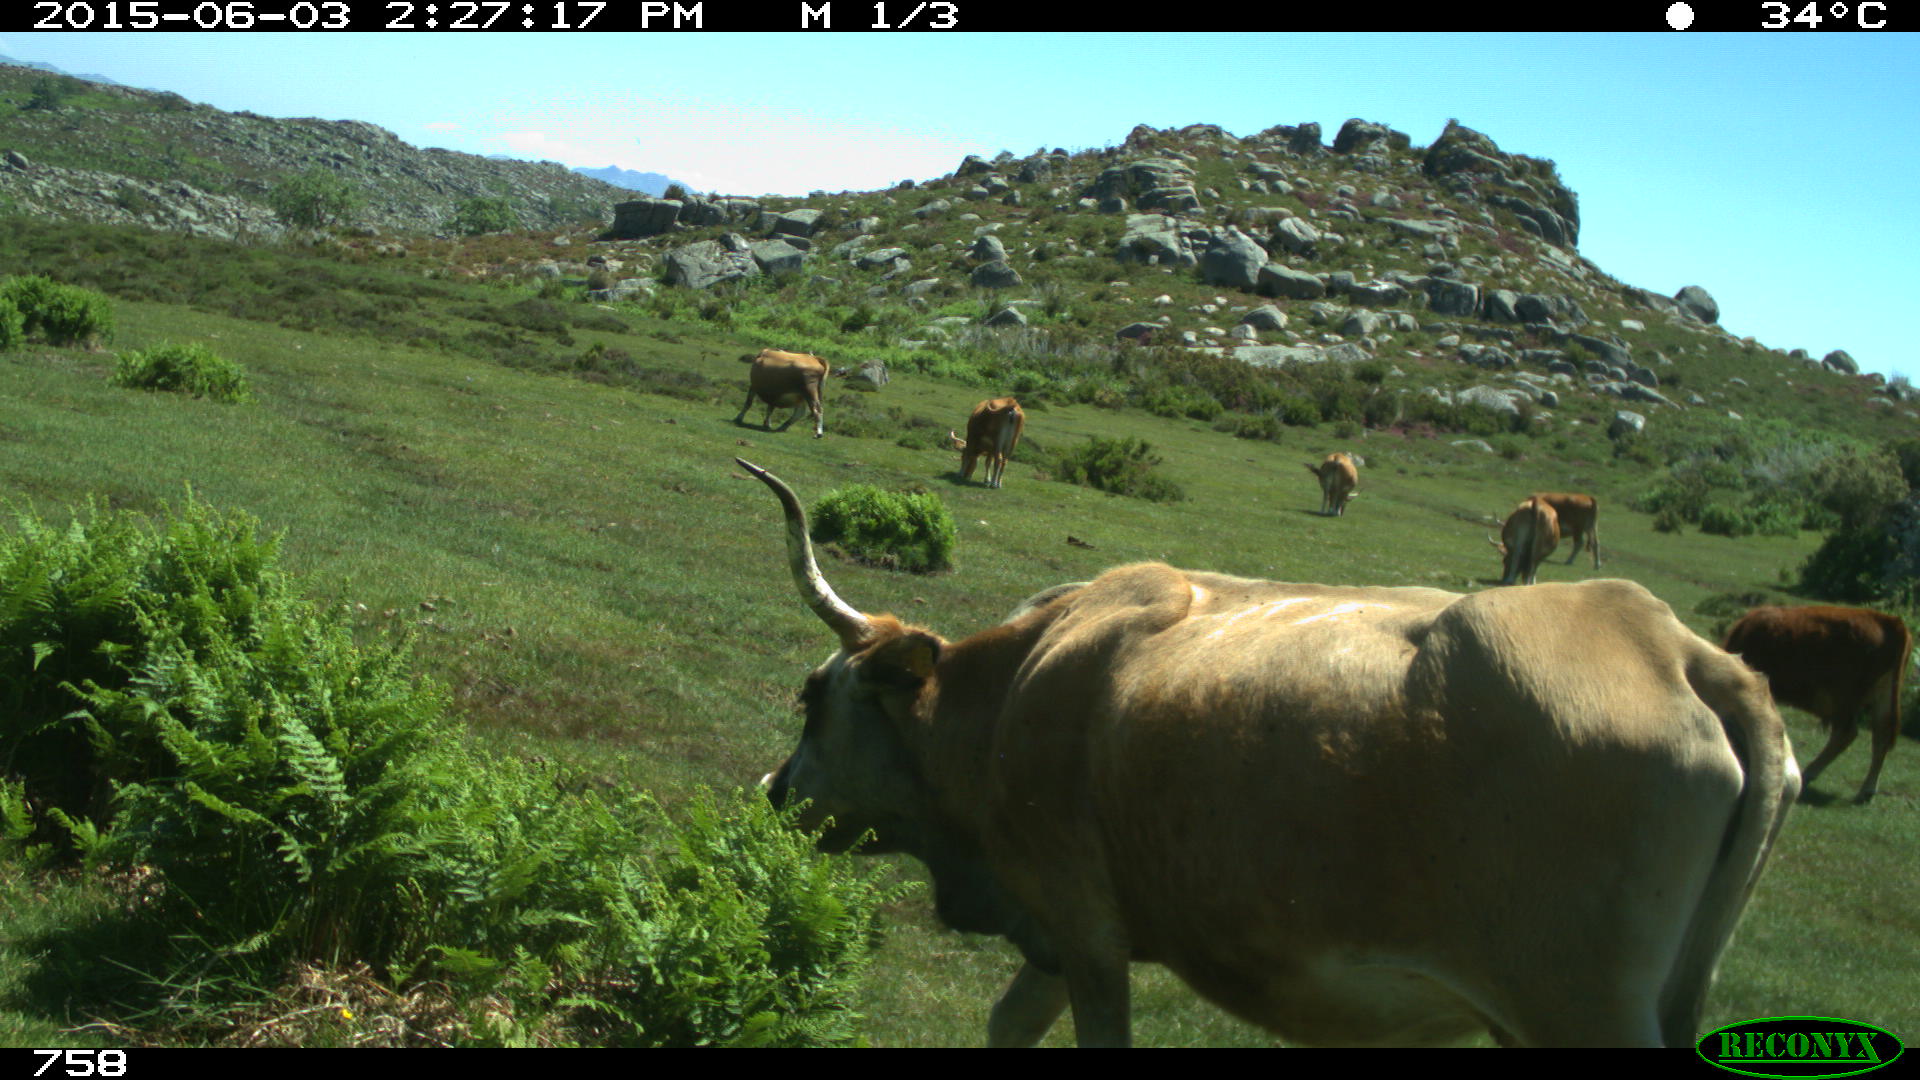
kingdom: Animalia
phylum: Chordata
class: Mammalia
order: Artiodactyla
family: Bovidae
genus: Bos
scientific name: Bos taurus
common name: Domesticated cattle
